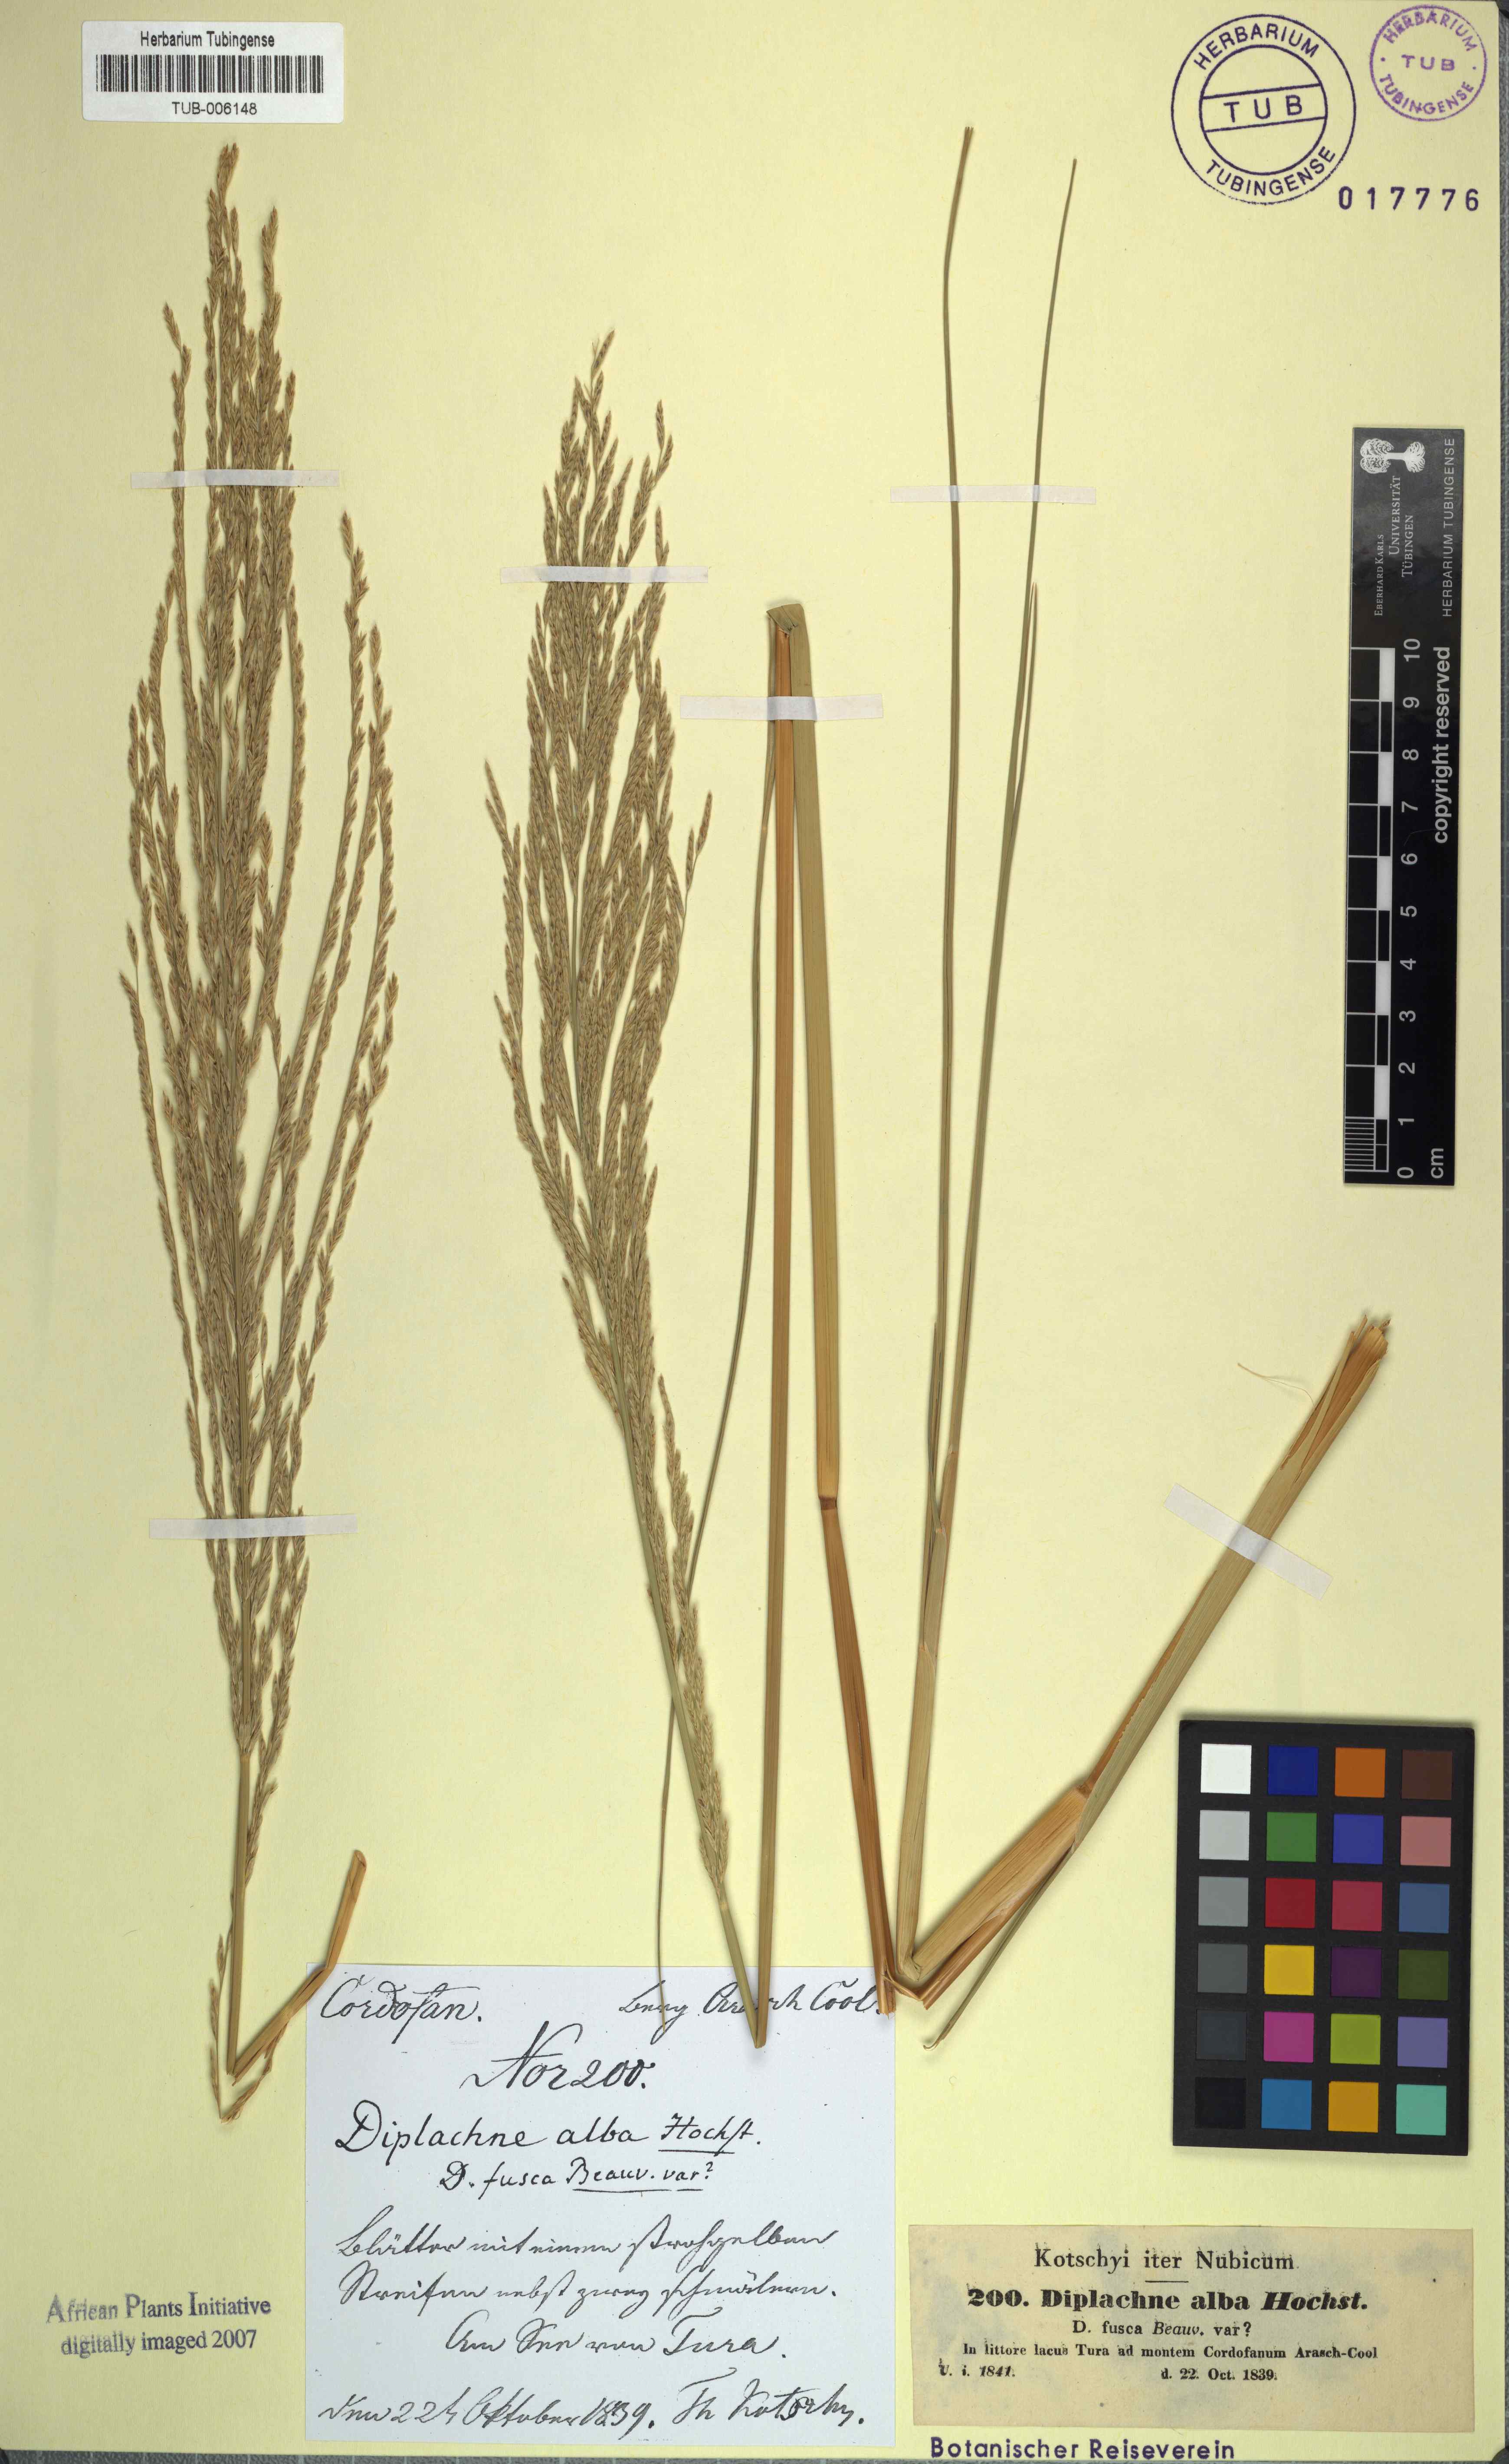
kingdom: Plantae
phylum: Tracheophyta
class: Liliopsida
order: Poales
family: Poaceae
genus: Diplachne
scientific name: Diplachne alba
